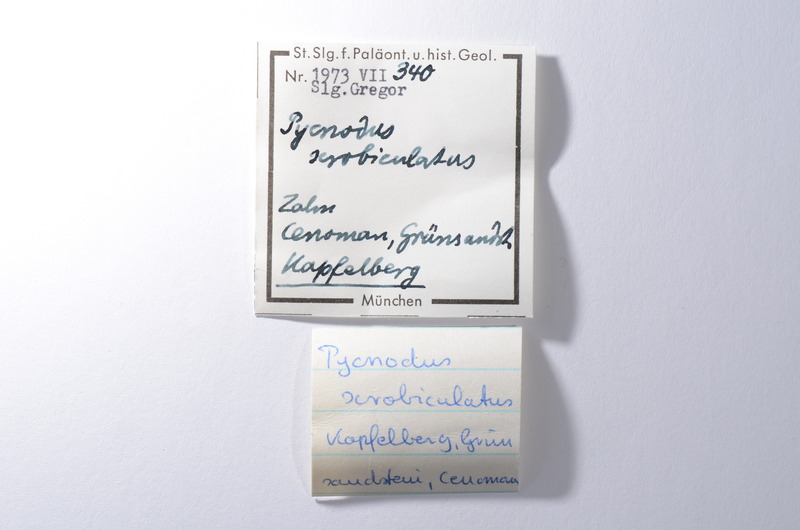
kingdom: Animalia
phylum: Chordata
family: Pycnodontidae
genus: Pycnodus
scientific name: Pycnodus
